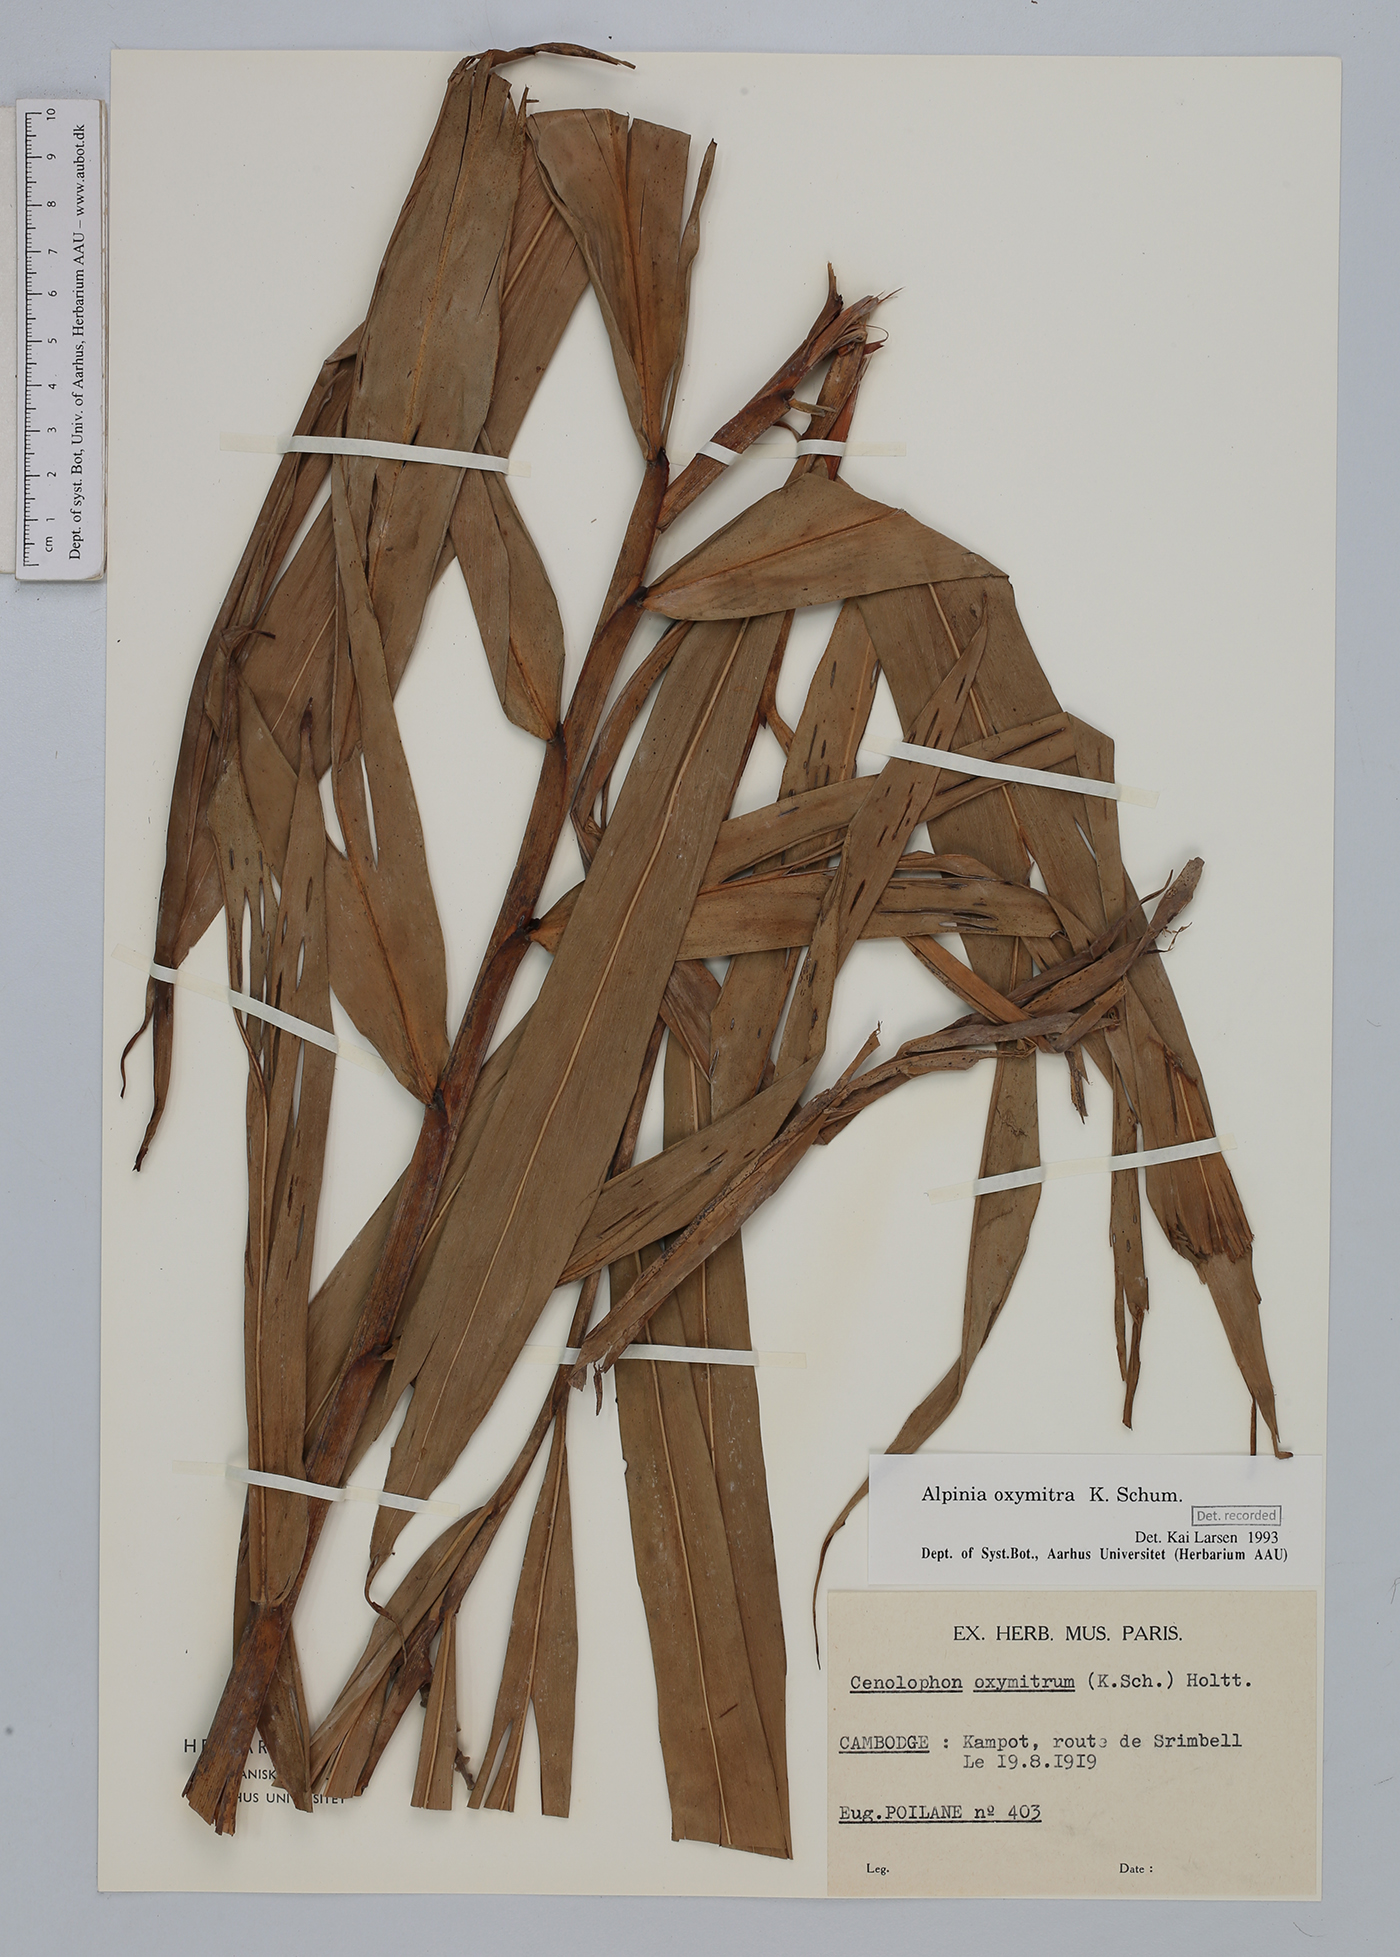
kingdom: Plantae
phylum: Tracheophyta
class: Liliopsida
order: Zingiberales
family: Zingiberaceae
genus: Alpinia
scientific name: Alpinia oxymitra
